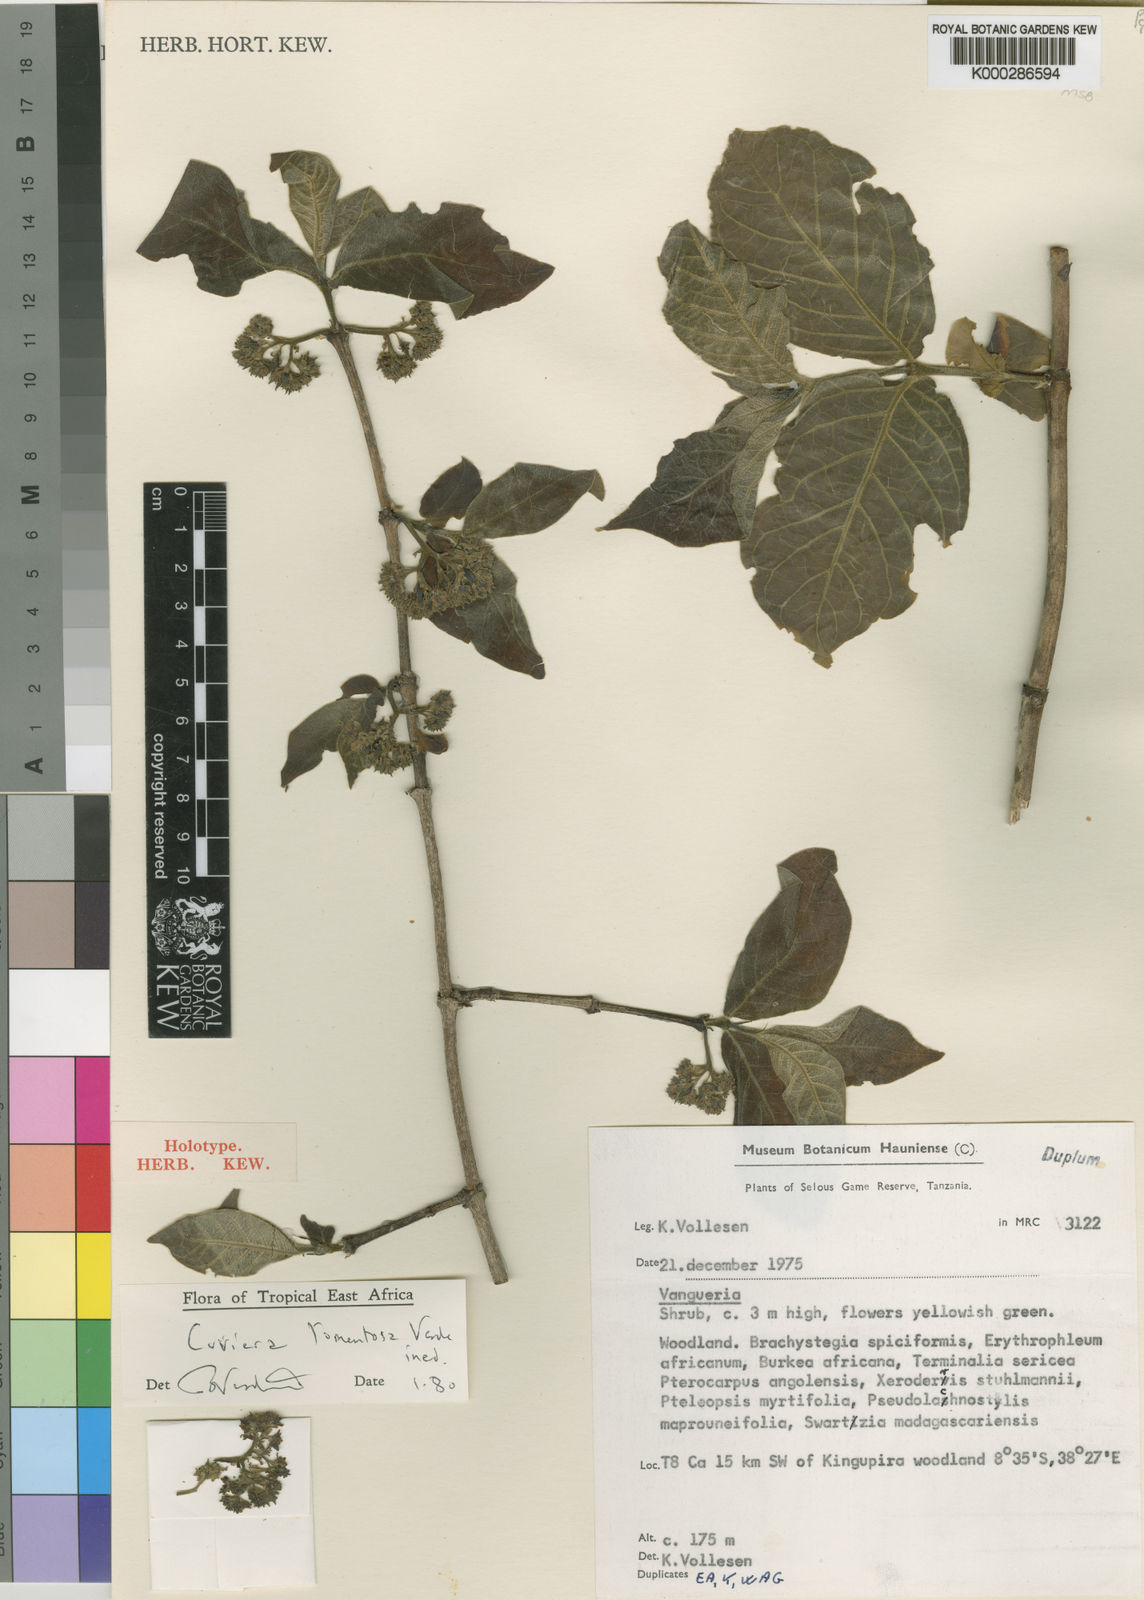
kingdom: Plantae
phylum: Tracheophyta
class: Magnoliopsida
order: Gentianales
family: Rubiaceae
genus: Cuviera
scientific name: Cuviera tomentosa
